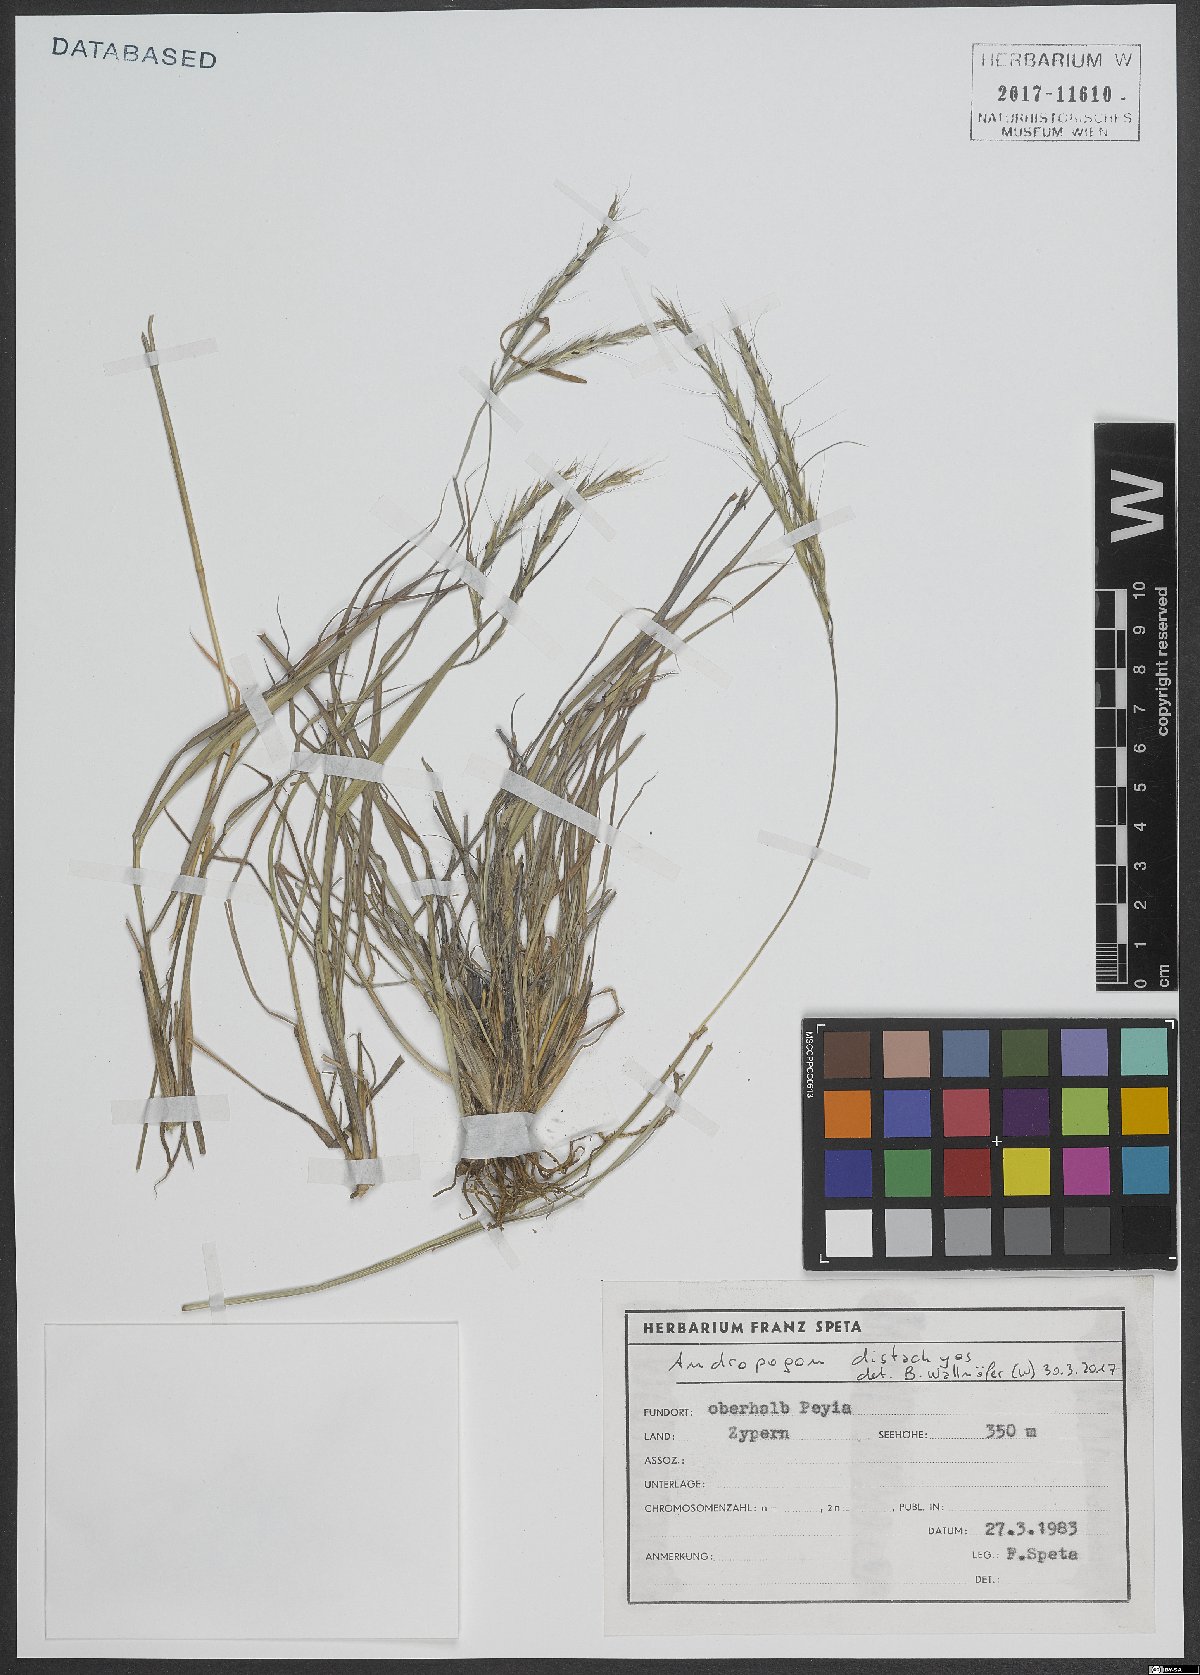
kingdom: Plantae
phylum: Tracheophyta
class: Liliopsida
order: Poales
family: Poaceae
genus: Andropogon
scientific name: Andropogon distachyos
